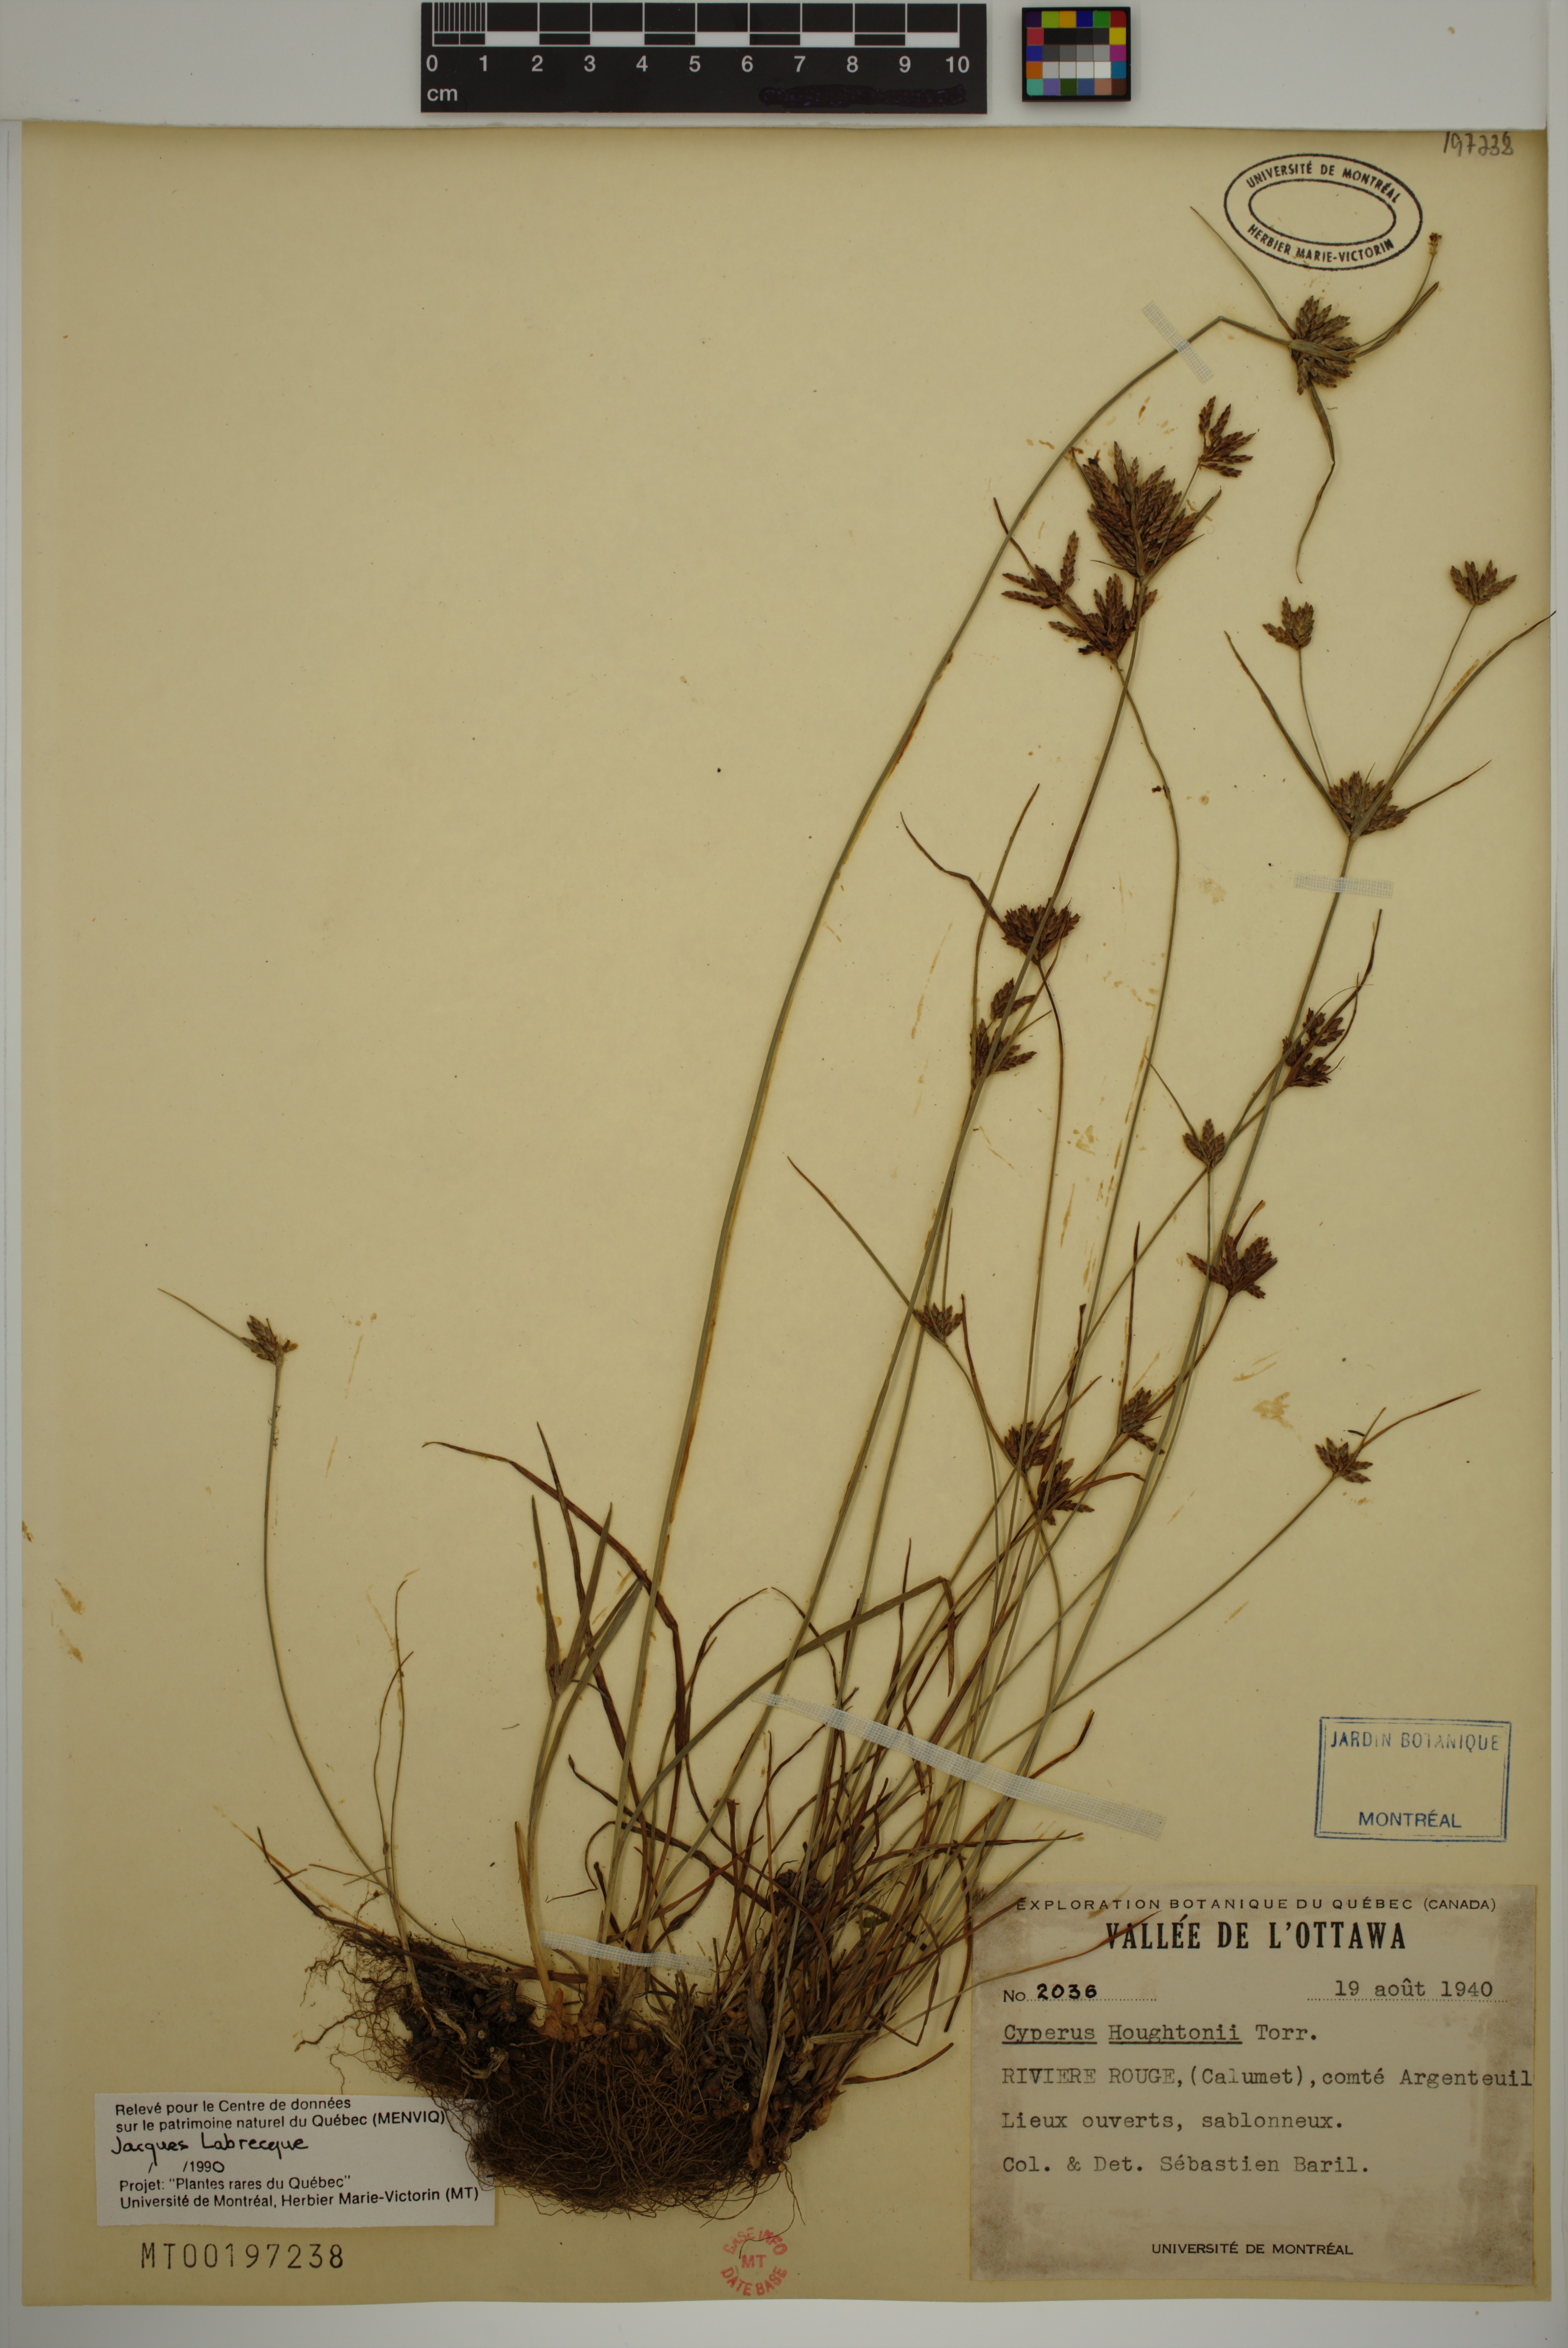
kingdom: Plantae
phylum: Tracheophyta
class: Liliopsida
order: Poales
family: Cyperaceae
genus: Cyperus
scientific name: Cyperus houghtonii
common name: Houghton's cyperus
